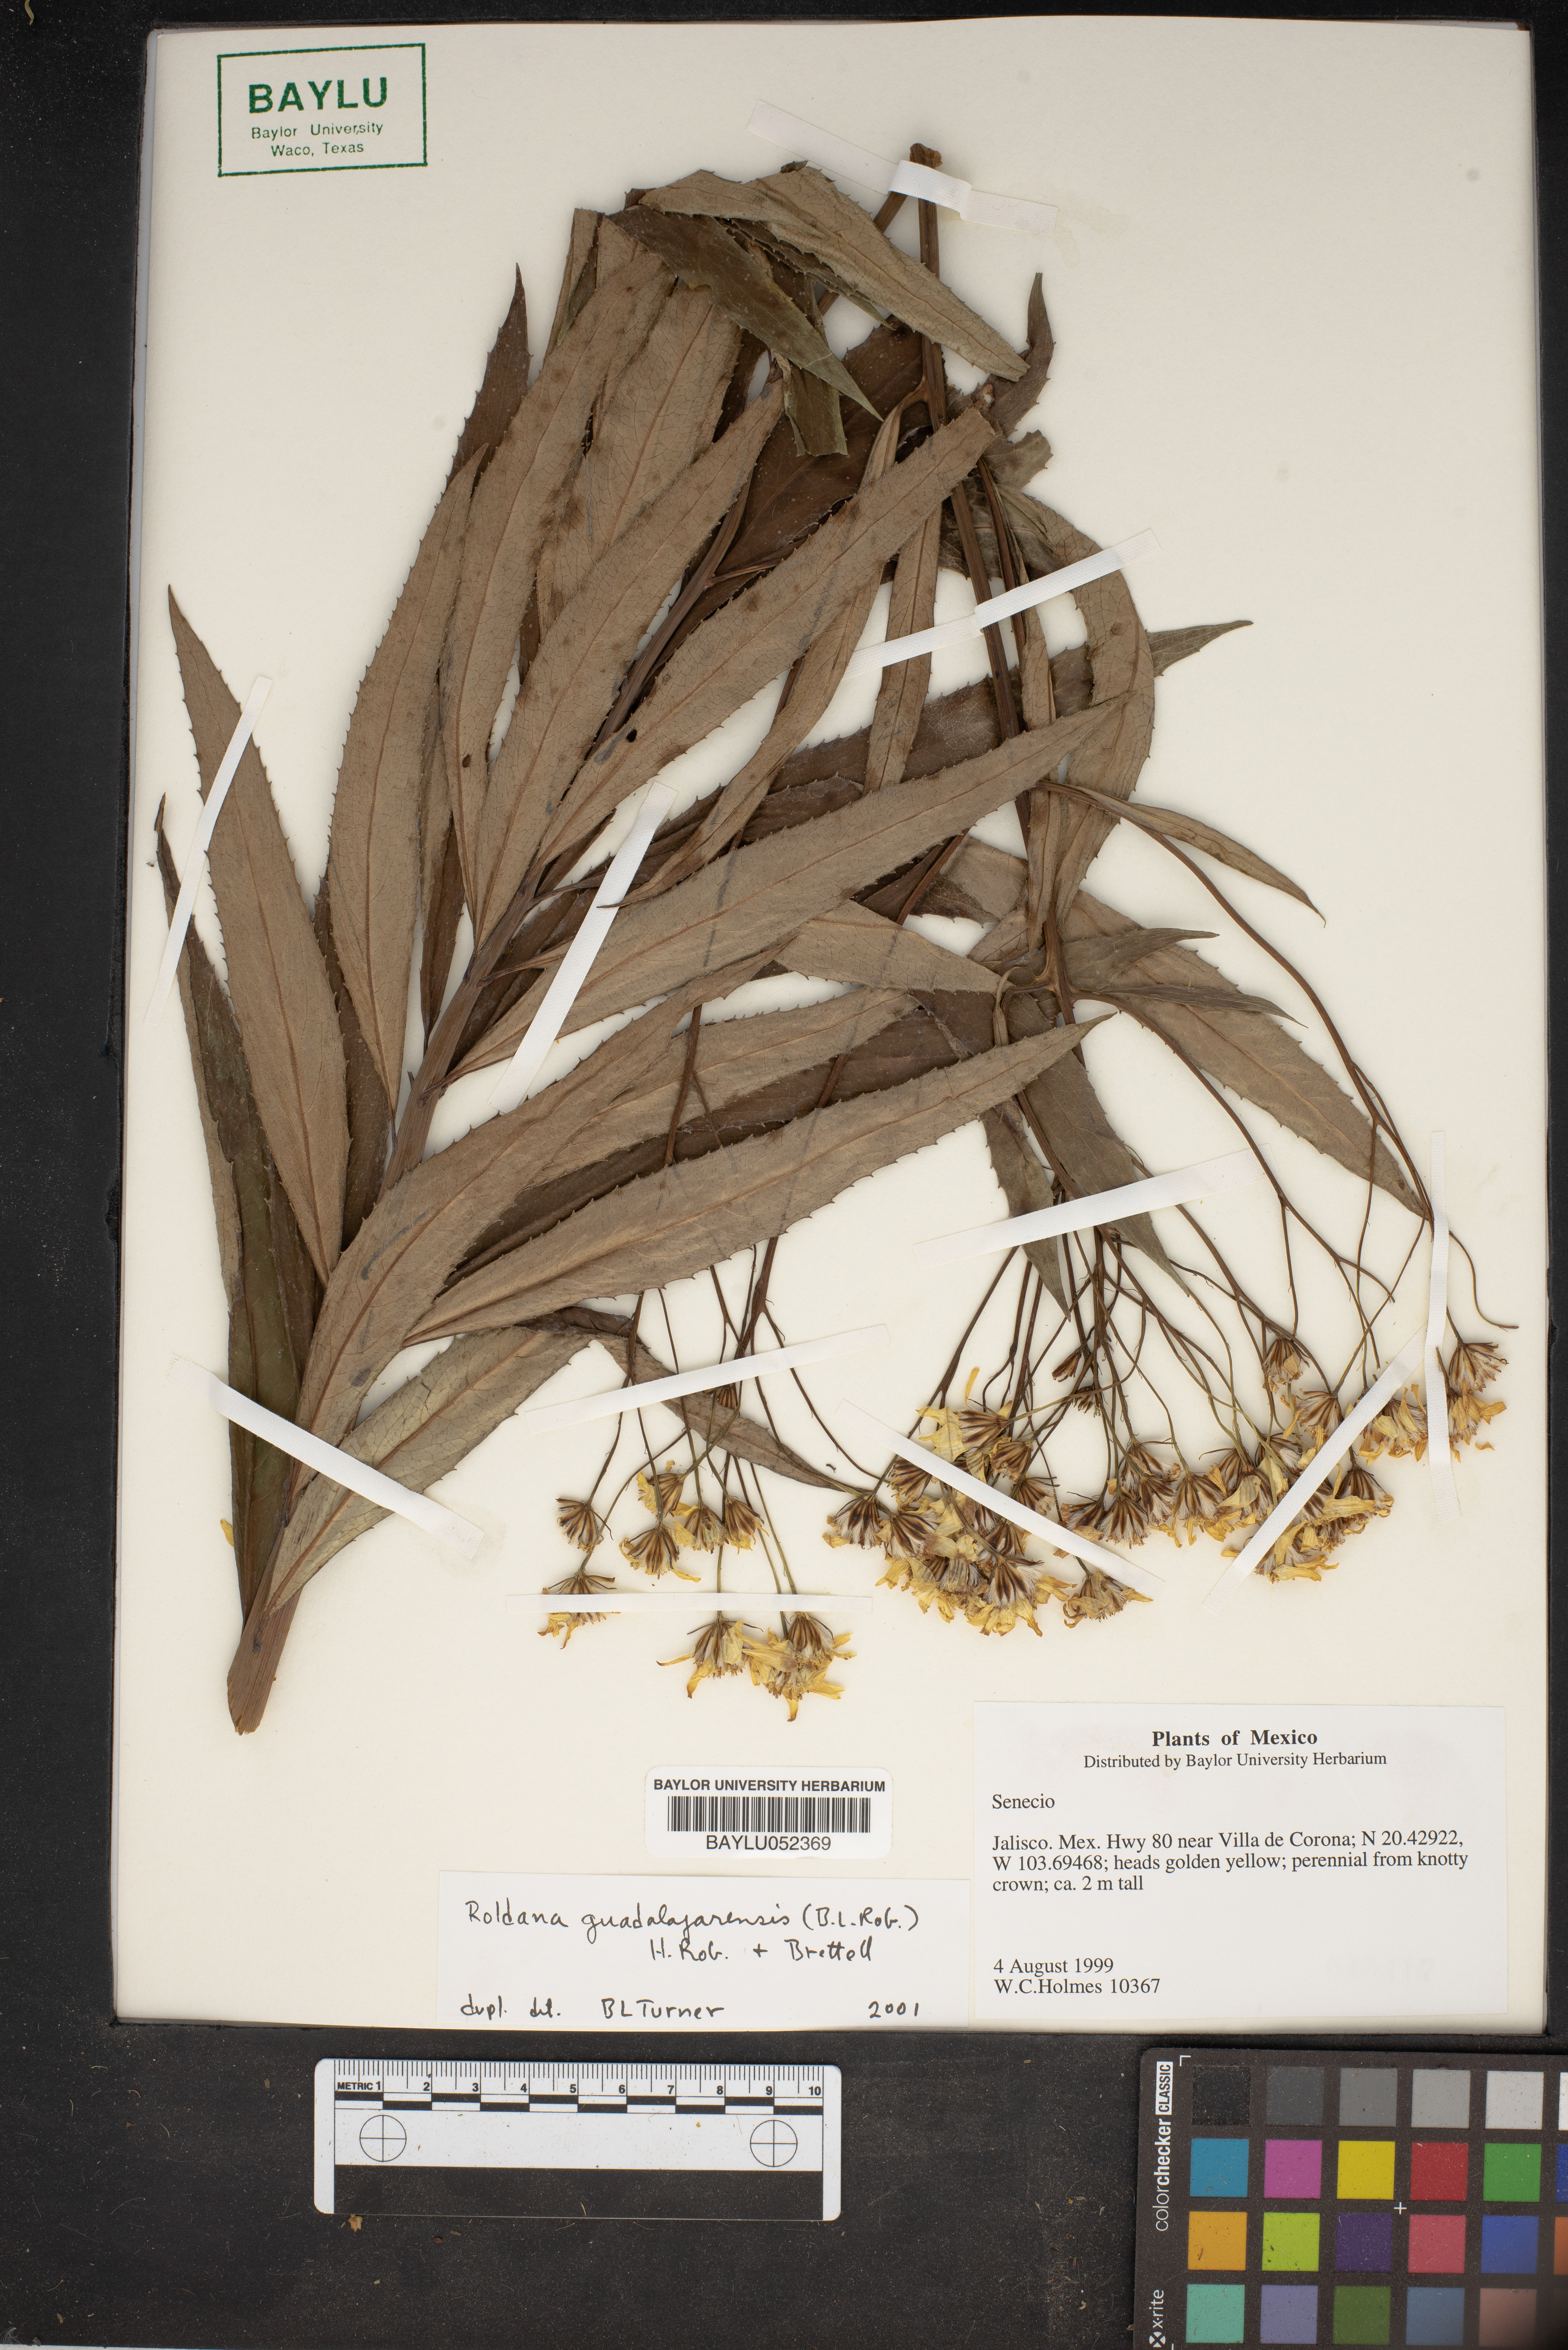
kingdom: Plantae
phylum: Tracheophyta
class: Magnoliopsida
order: Asterales
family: Asteraceae
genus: Roldana
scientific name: Roldana guadalajarensis
